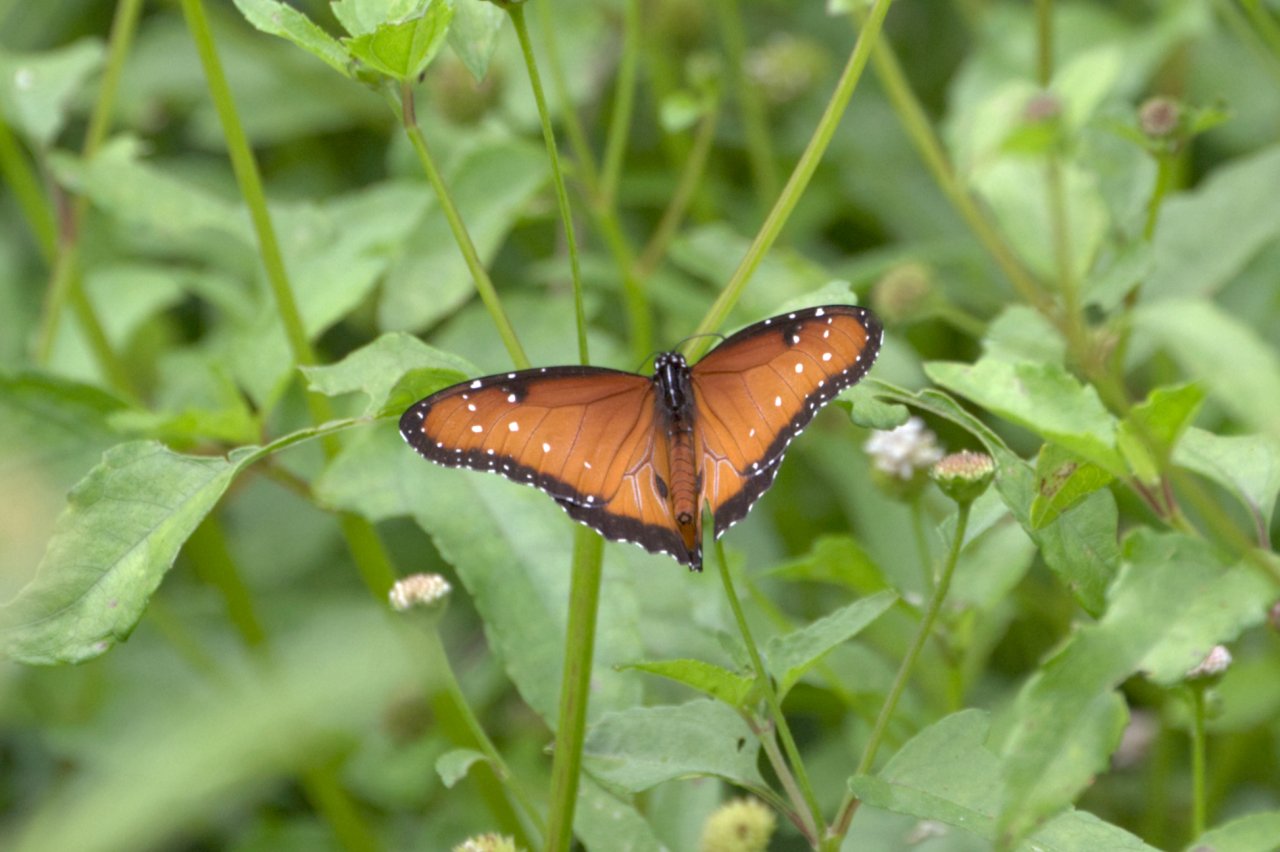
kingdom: Animalia
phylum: Arthropoda
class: Insecta
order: Lepidoptera
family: Nymphalidae
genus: Danaus
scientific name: Danaus gilippus
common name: Queen
